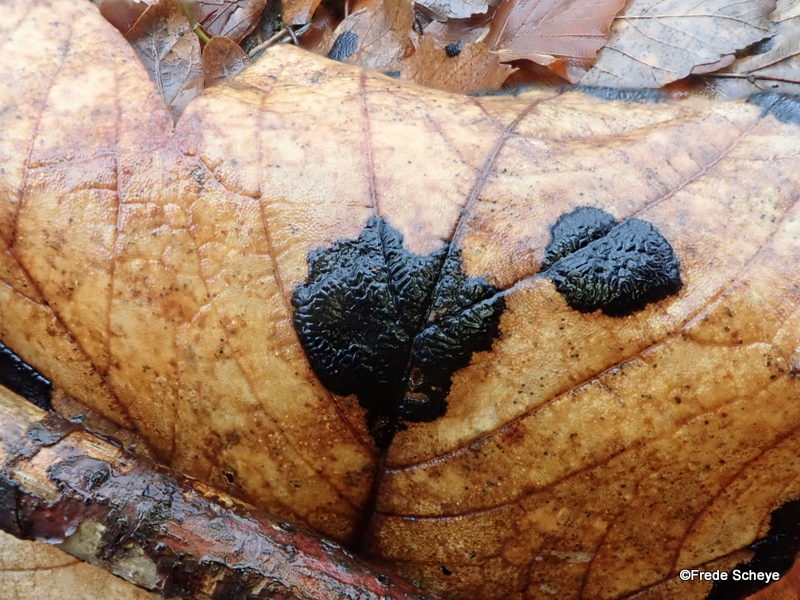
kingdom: Fungi
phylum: Ascomycota
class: Leotiomycetes
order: Rhytismatales
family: Rhytismataceae
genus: Rhytisma
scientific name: Rhytisma acerinum
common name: ahorn-rynkeplet
